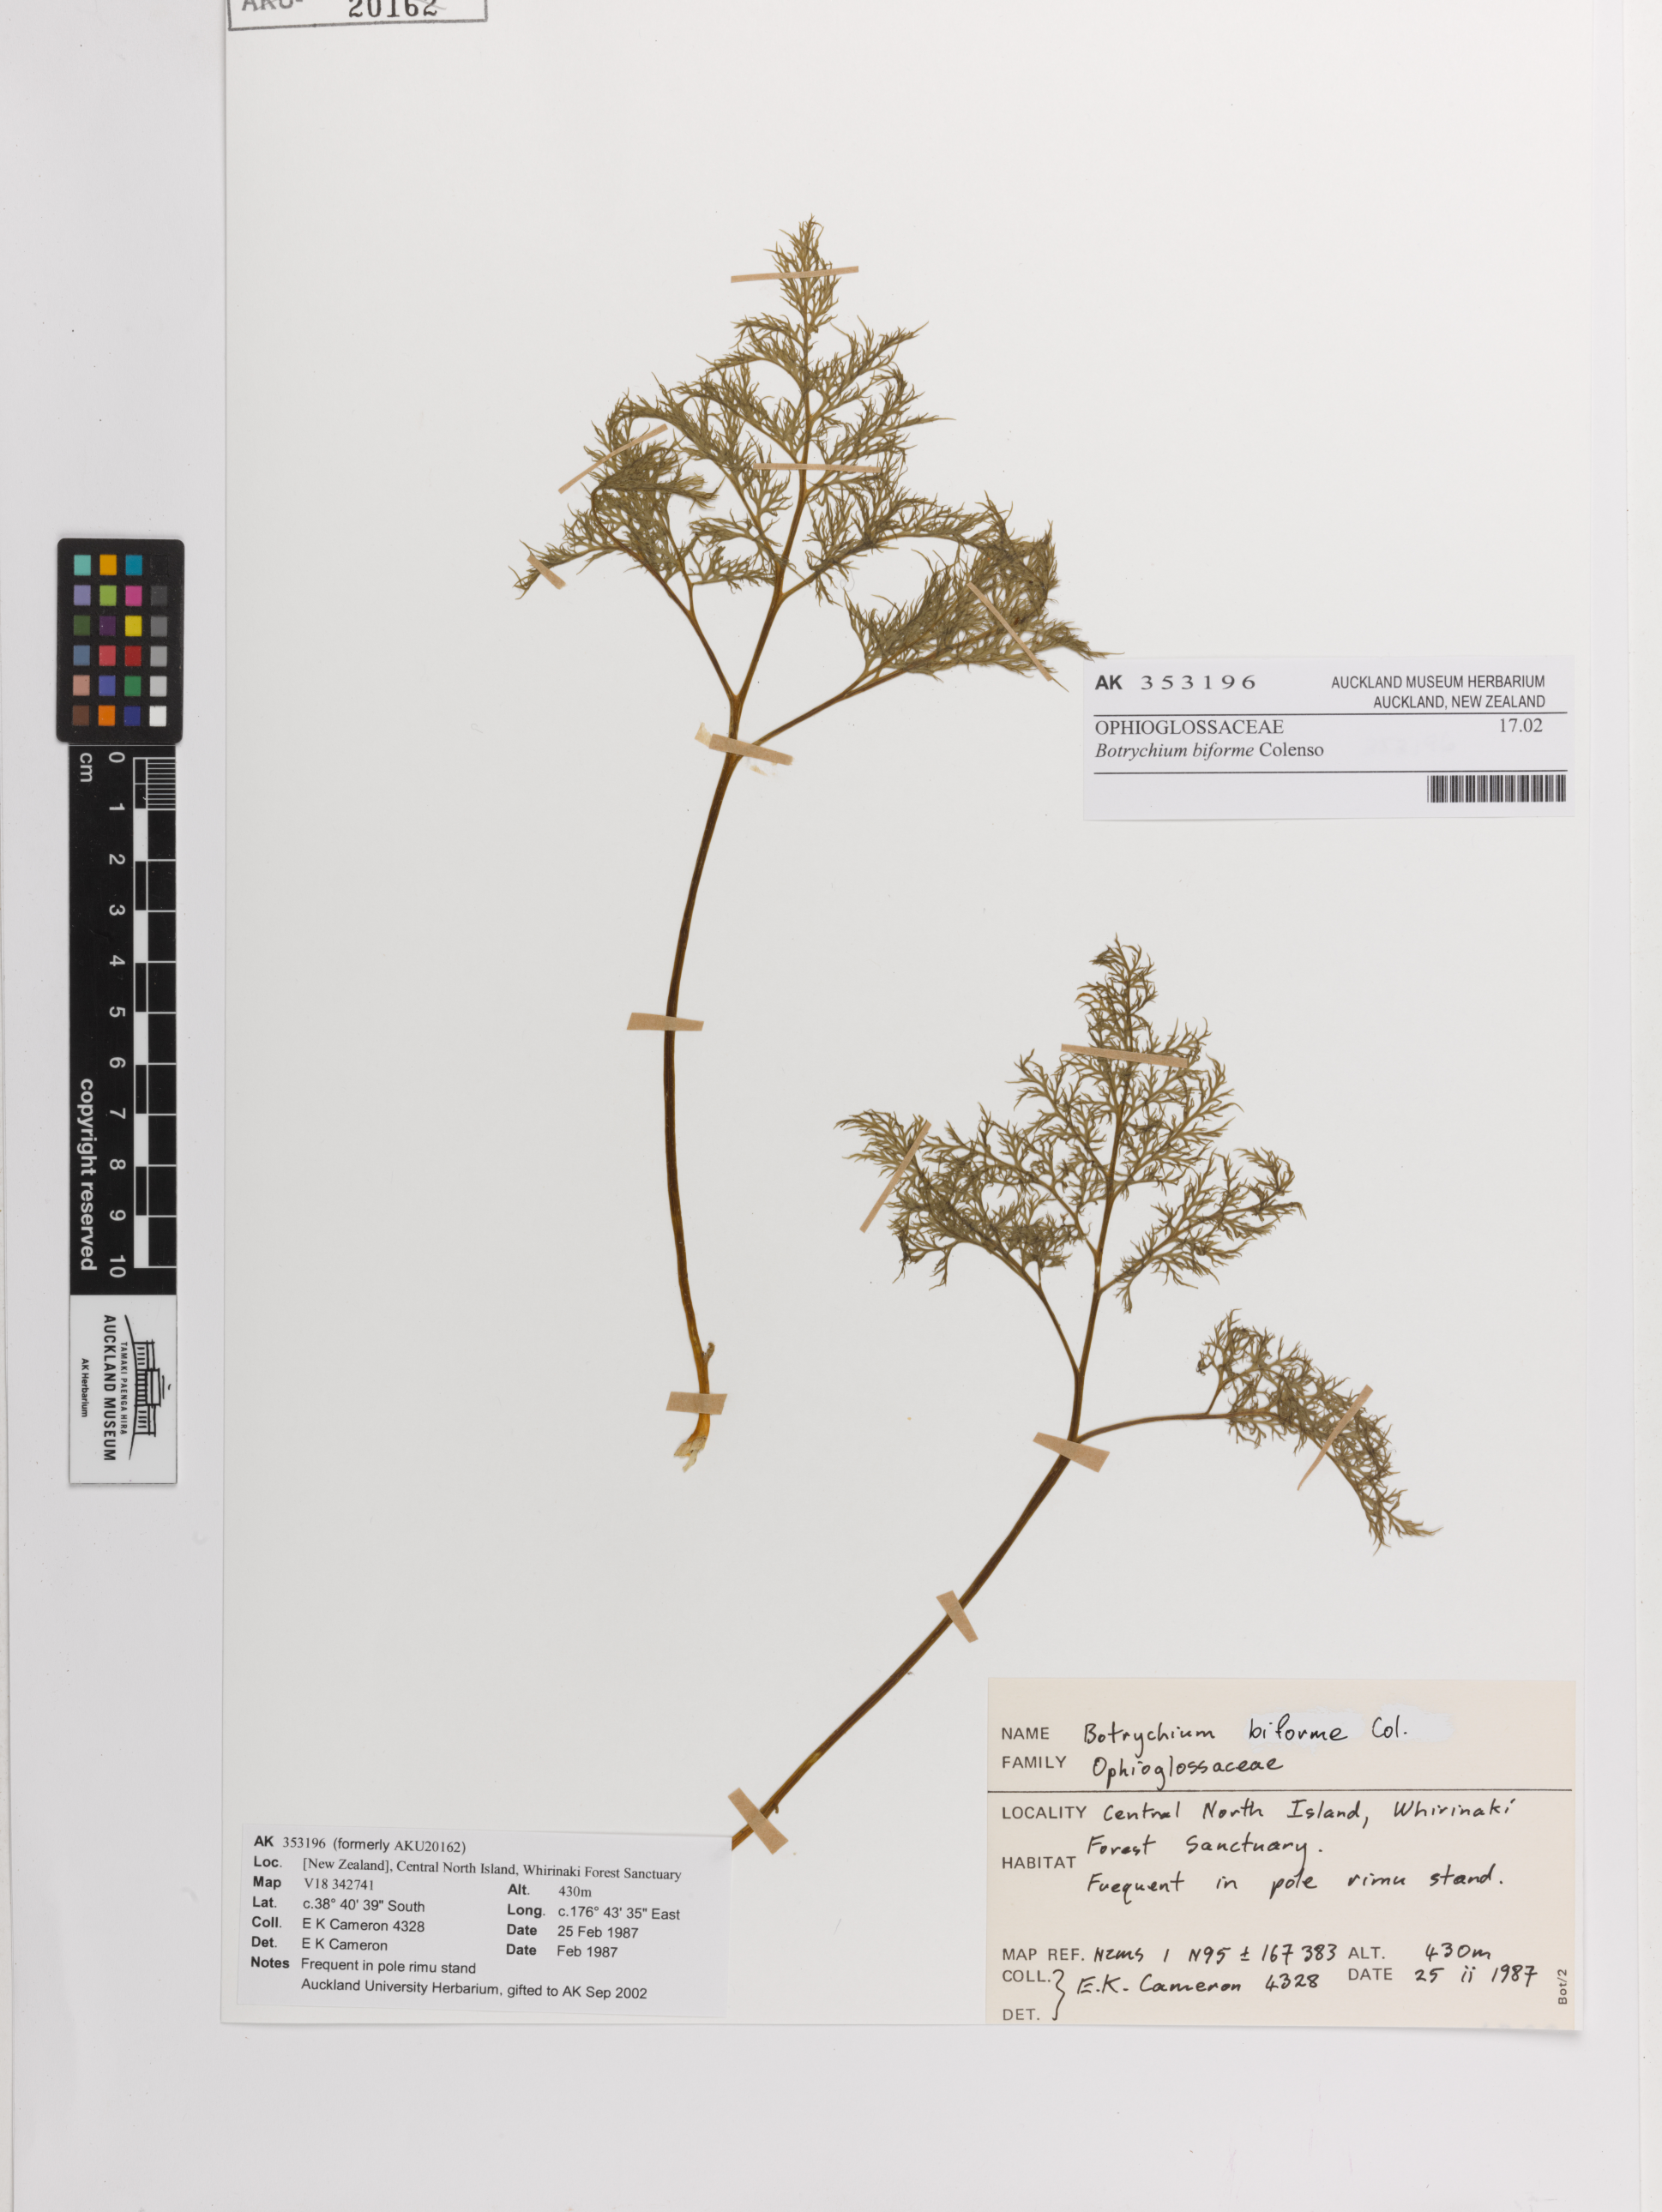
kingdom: Plantae
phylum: Tracheophyta
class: Polypodiopsida
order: Ophioglossales
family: Ophioglossaceae
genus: Sceptridium
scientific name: Sceptridium biforme
